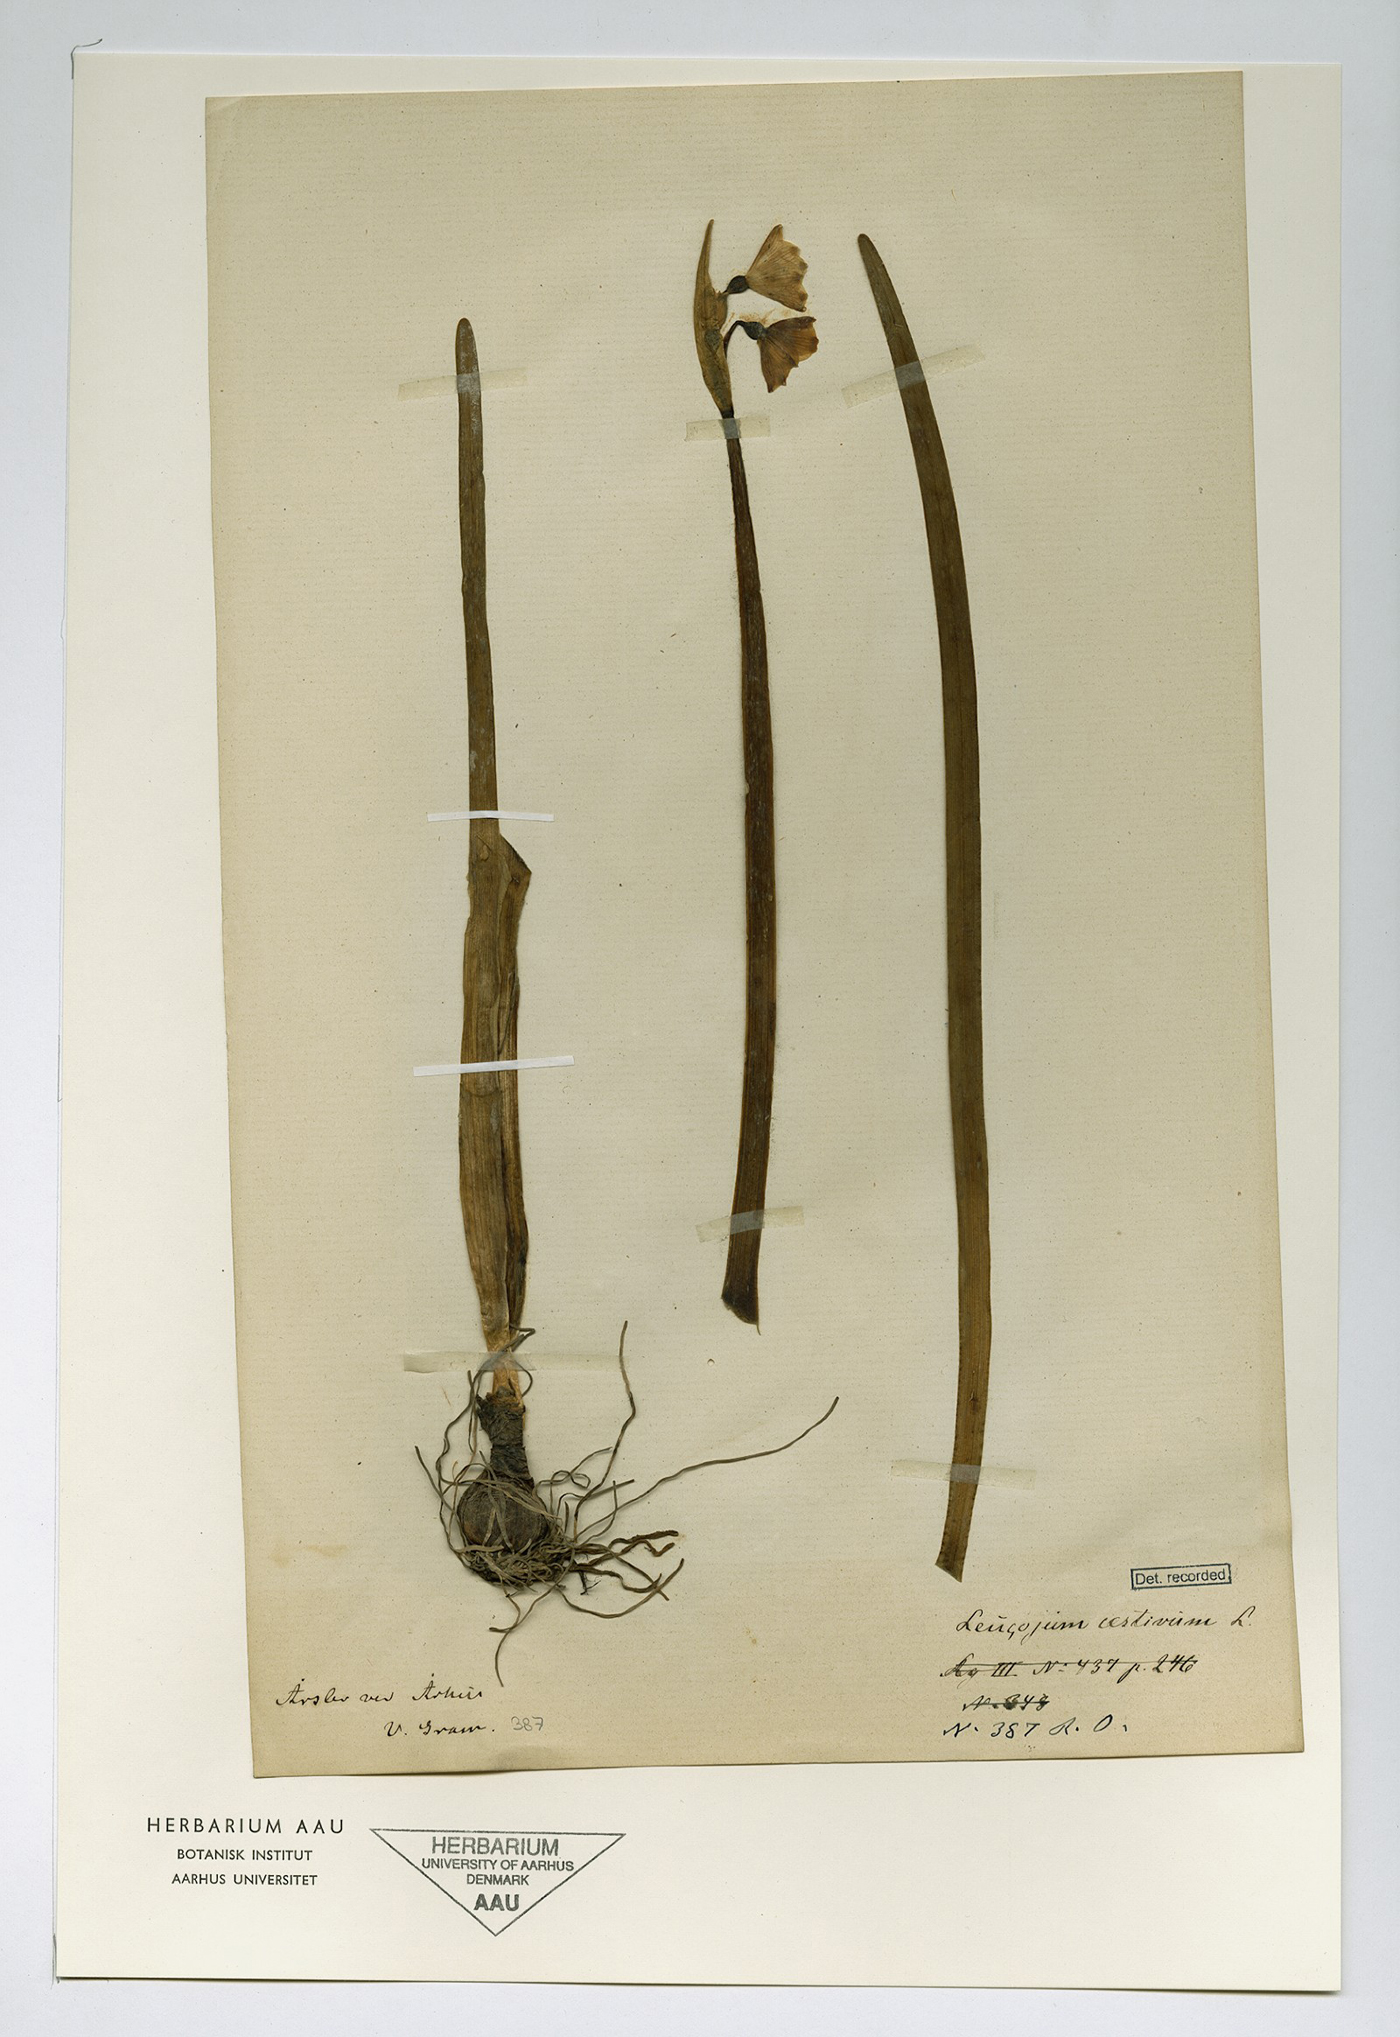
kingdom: Plantae
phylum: Tracheophyta
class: Liliopsida
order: Asparagales
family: Amaryllidaceae
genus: Leucojum
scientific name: Leucojum aestivum
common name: Summer snowflake
